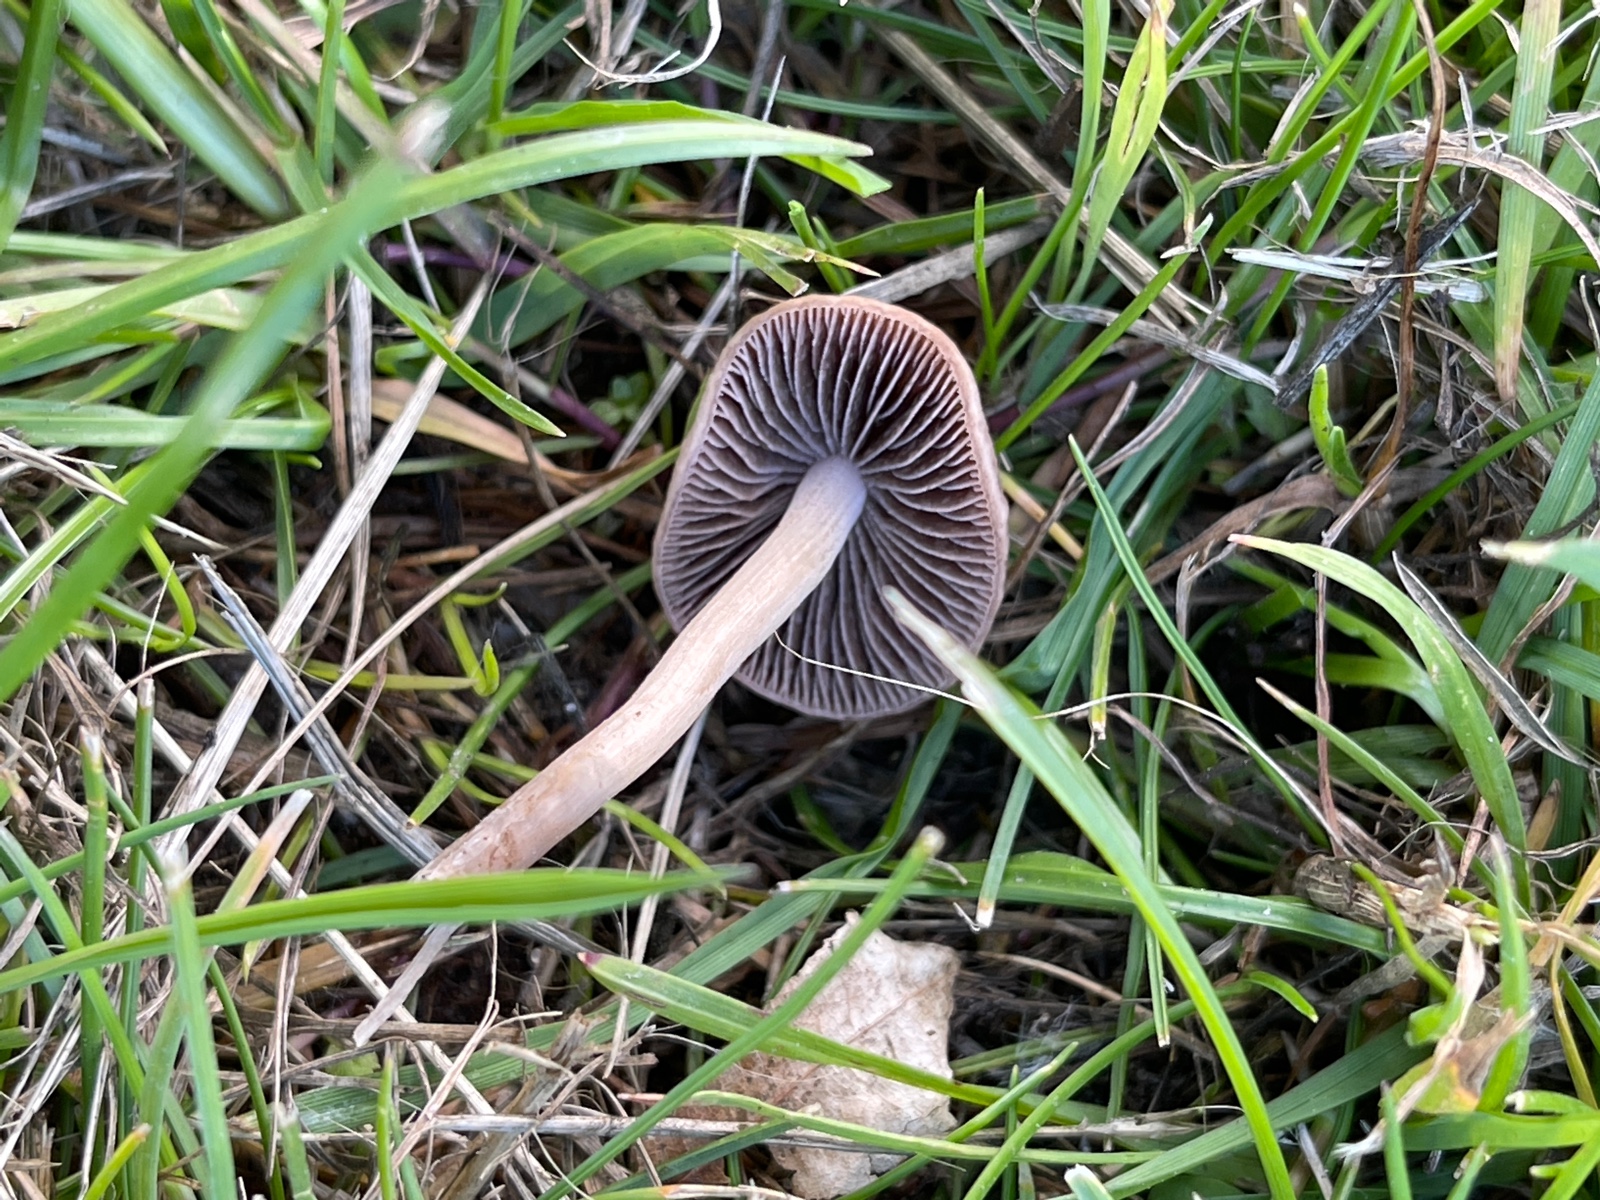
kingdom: Fungi
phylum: Basidiomycota
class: Agaricomycetes
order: Agaricales
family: Bolbitiaceae
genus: Panaeolina
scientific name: Panaeolina foenisecii
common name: høslætsvamp
